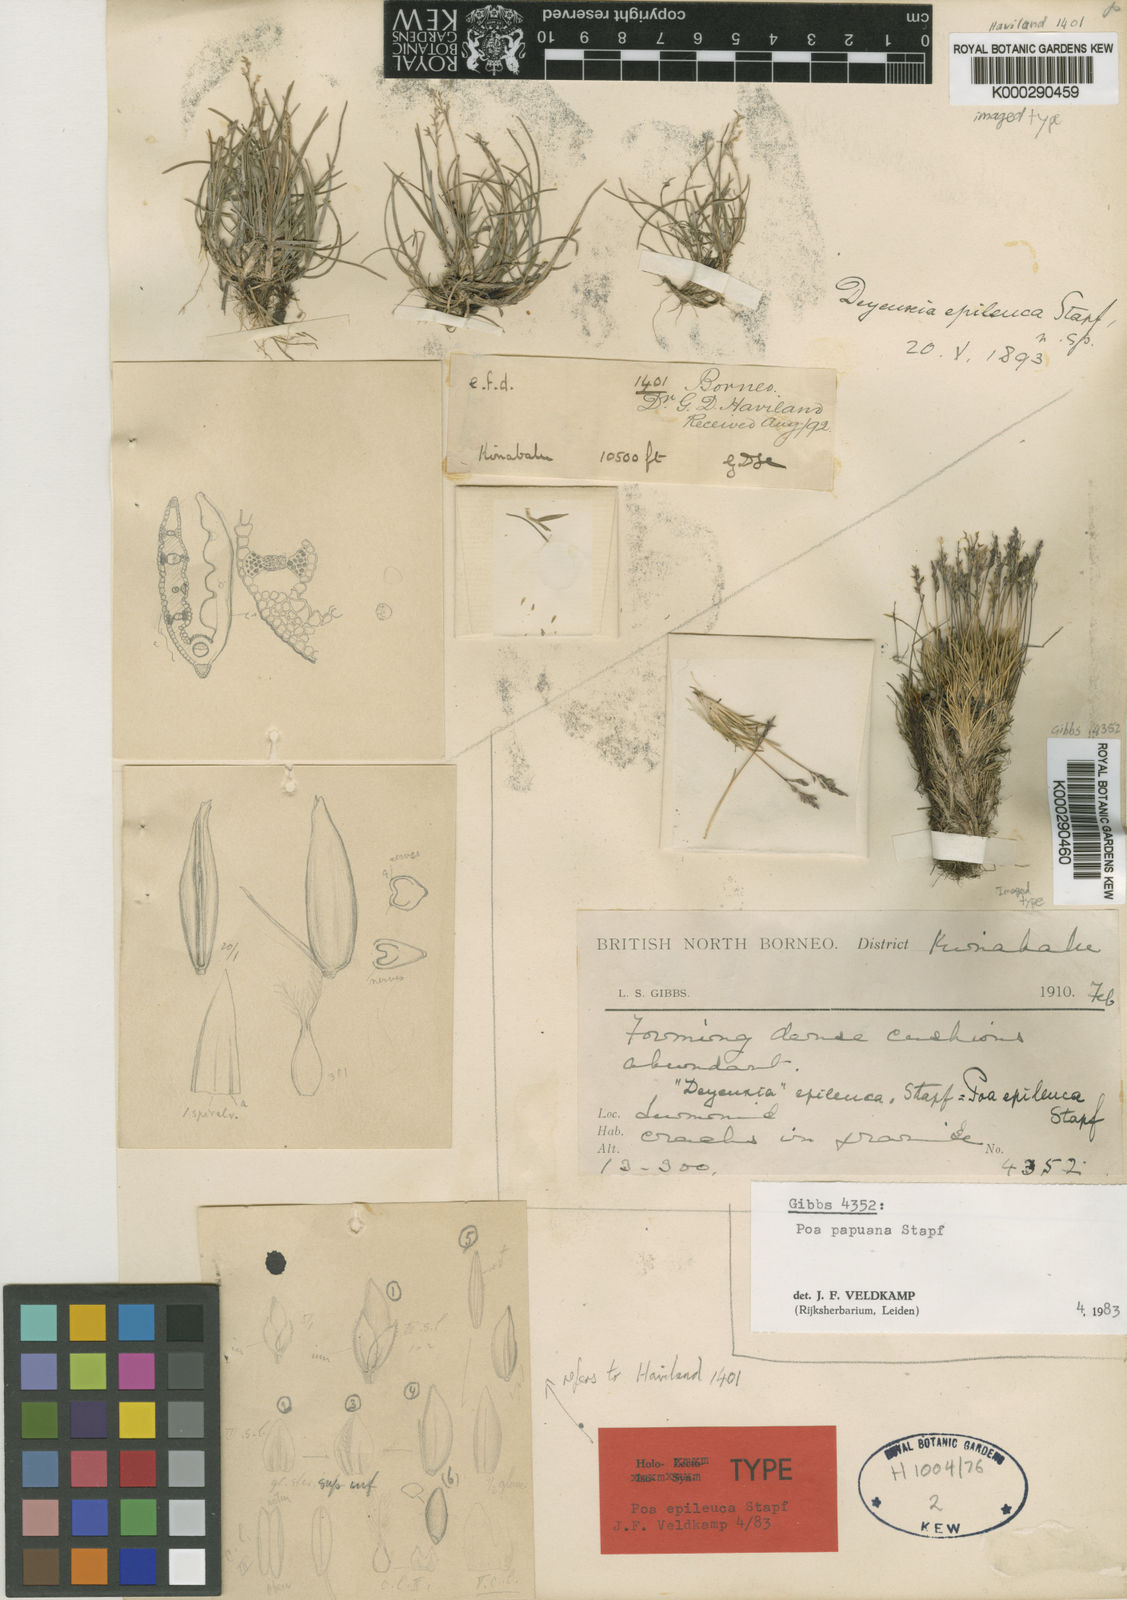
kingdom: Plantae
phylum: Tracheophyta
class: Liliopsida
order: Poales
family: Poaceae
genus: Poa
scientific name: Poa epileuca
